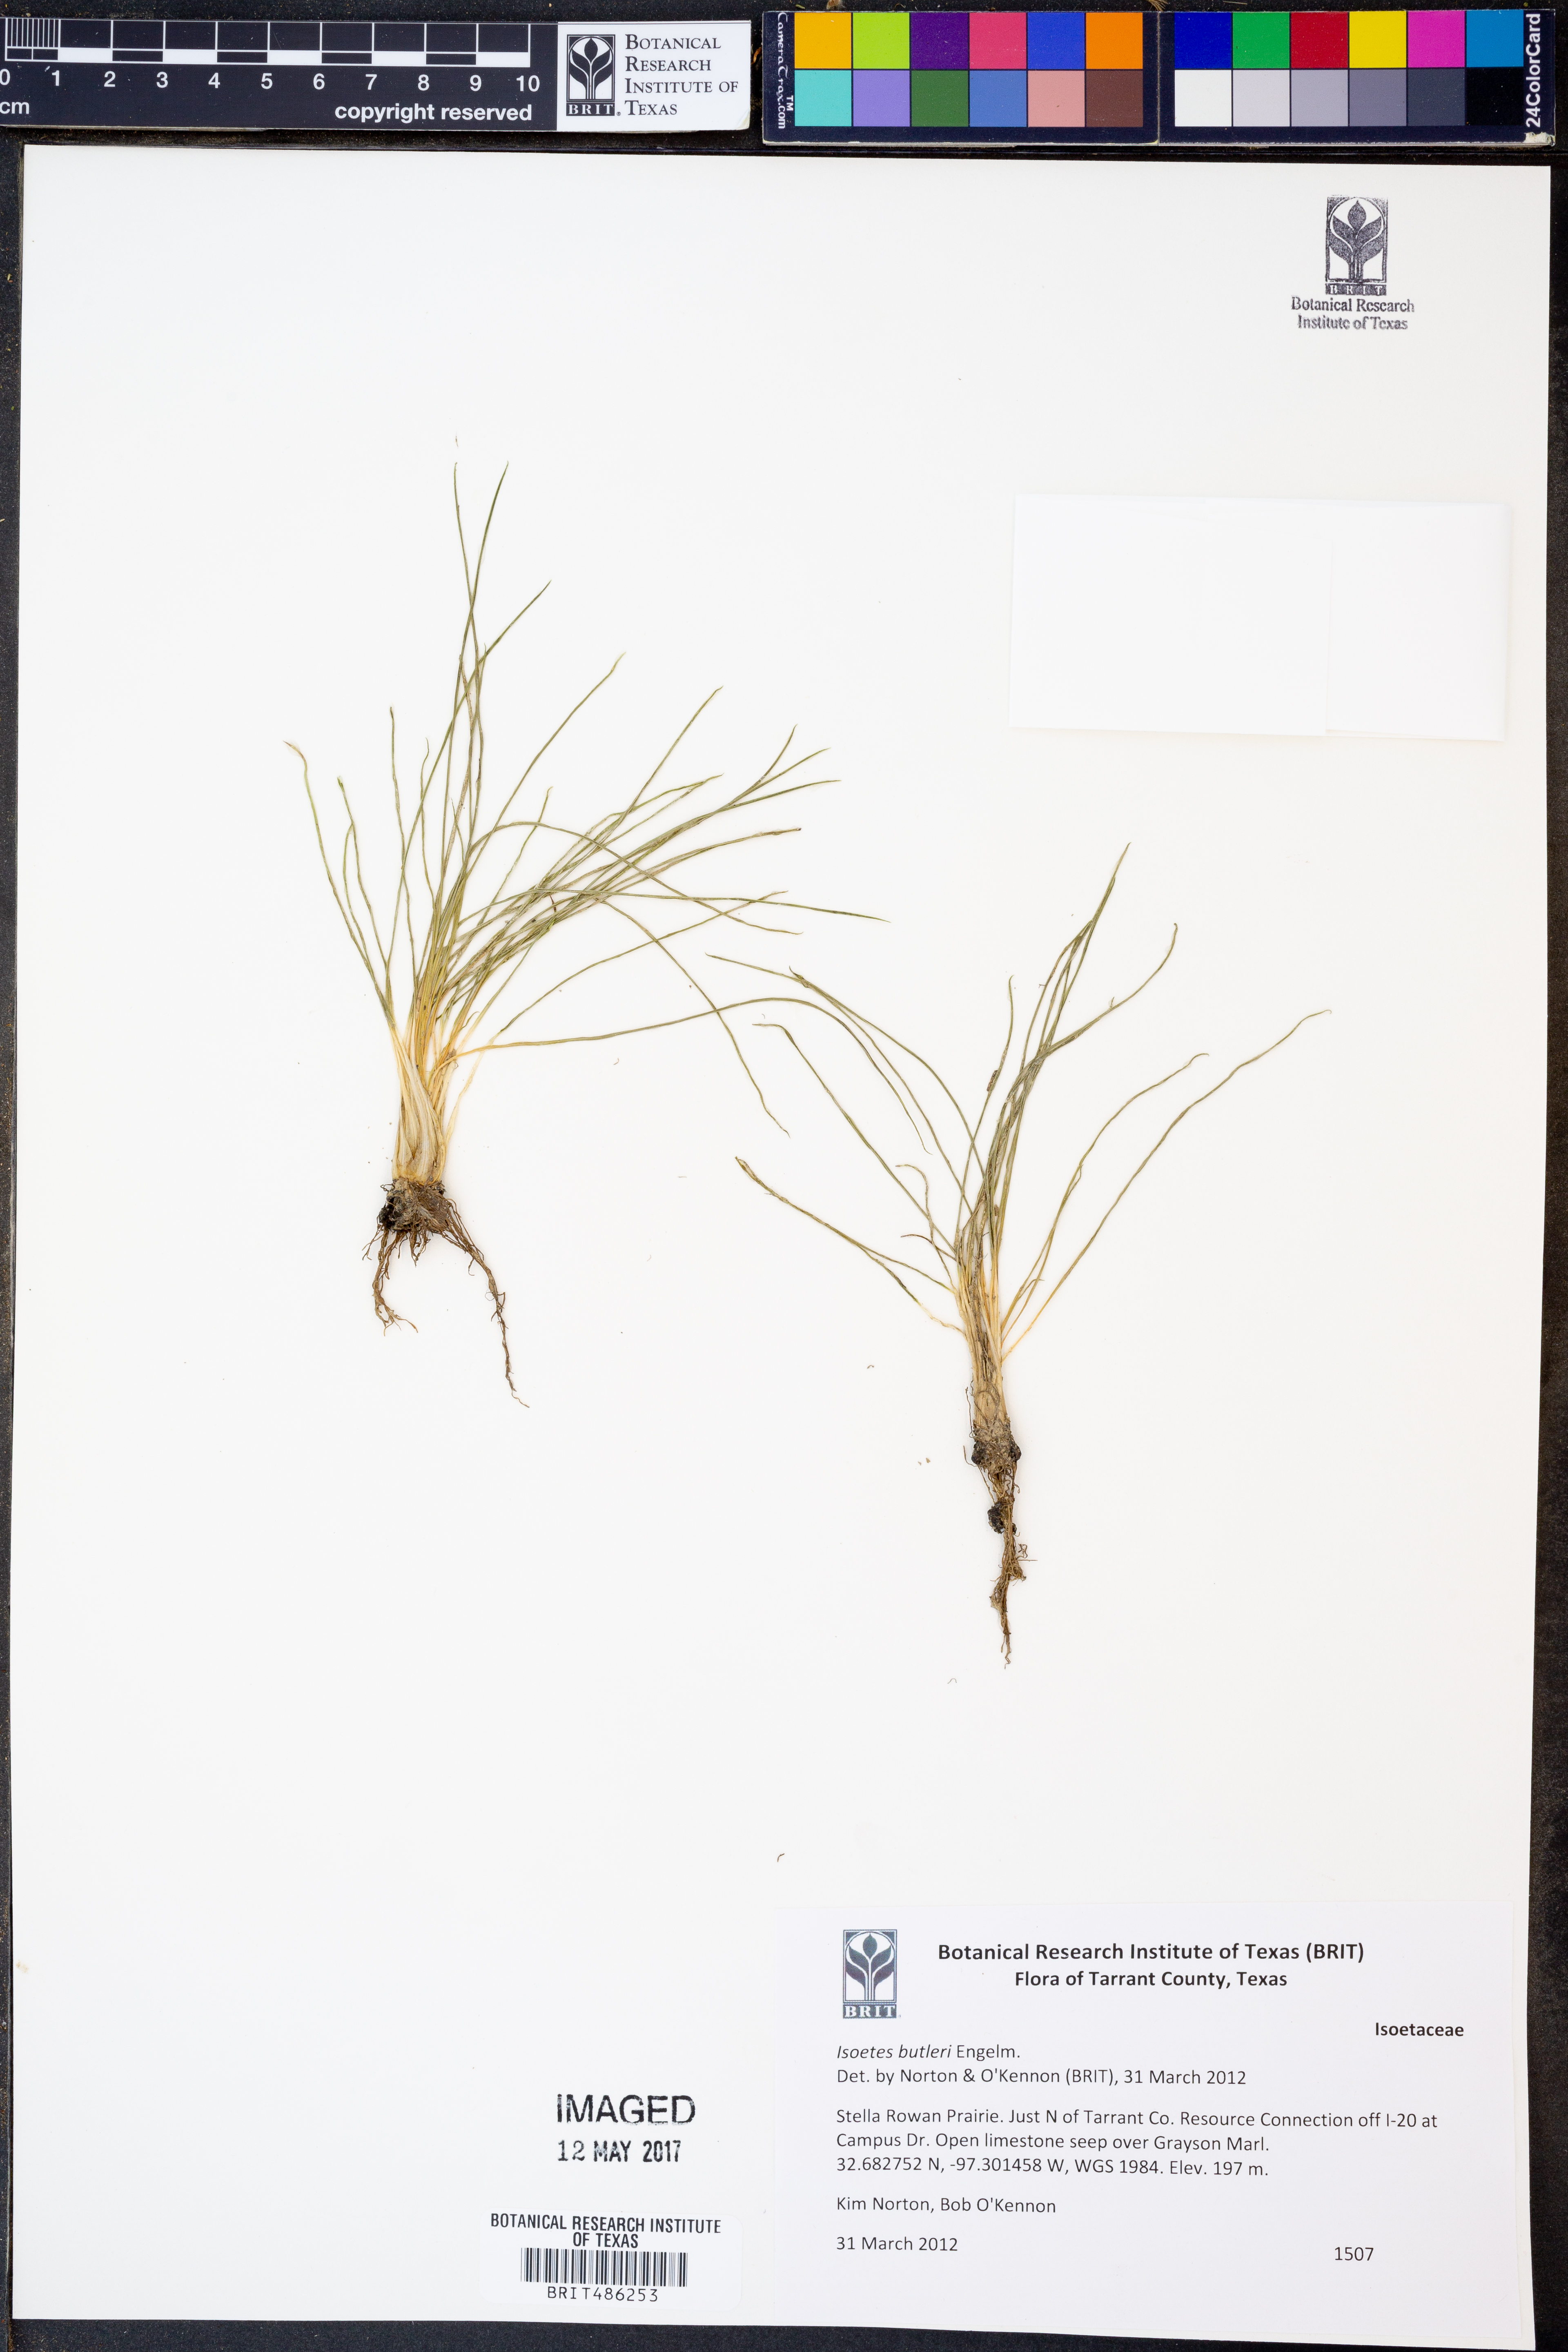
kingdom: Plantae
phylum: Tracheophyta
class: Lycopodiopsida
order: Isoetales
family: Isoetaceae
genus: Isoetes
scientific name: Isoetes butleri
